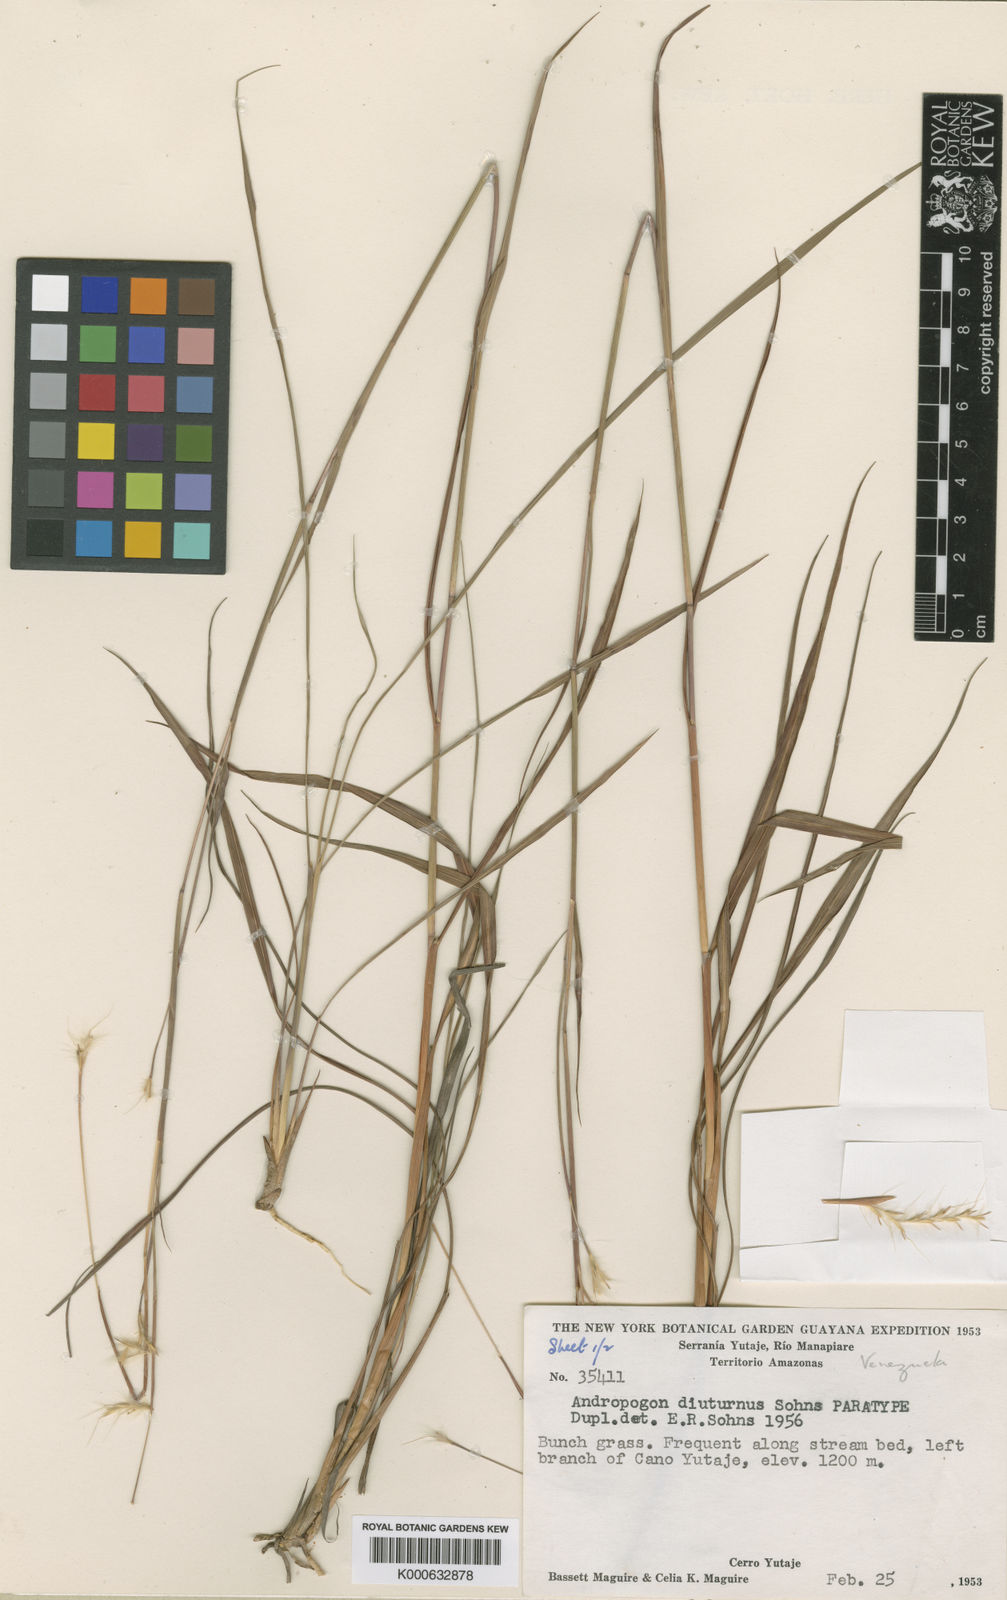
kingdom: Plantae
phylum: Tracheophyta
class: Liliopsida
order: Poales
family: Poaceae
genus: Andropogon
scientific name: Andropogon diuturnus
